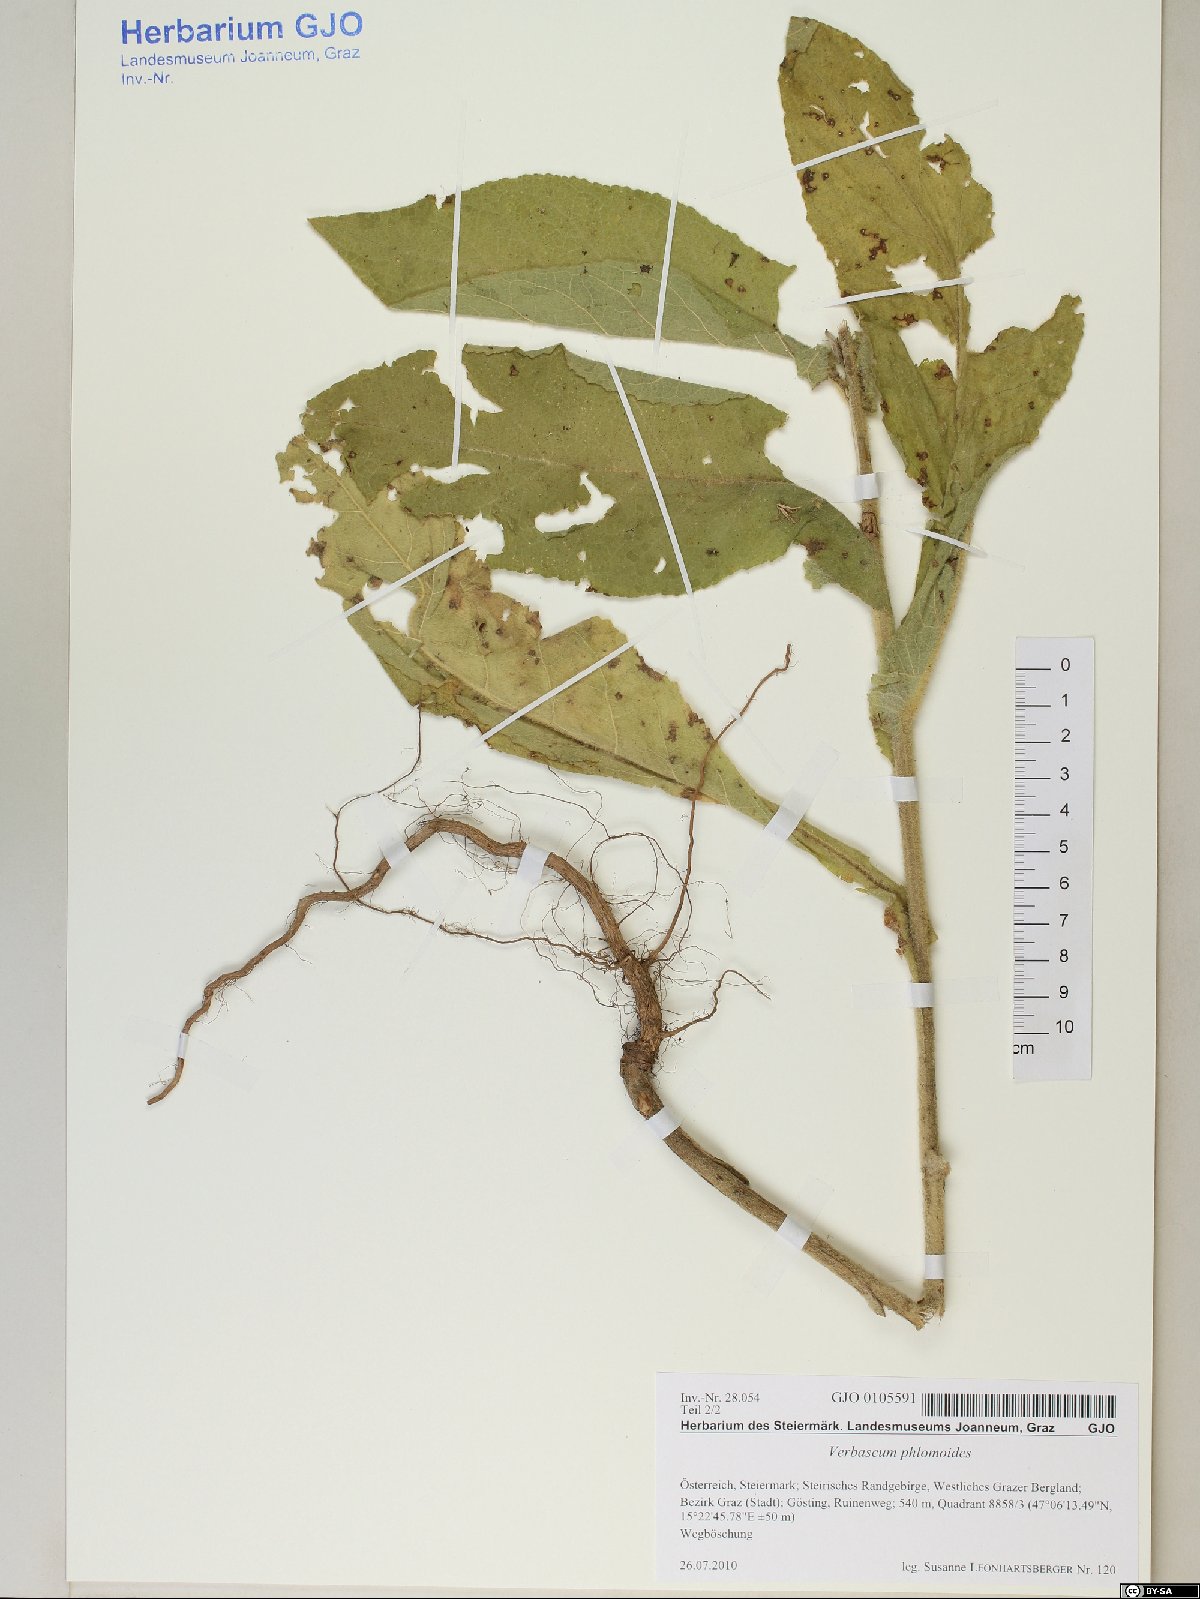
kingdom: Plantae
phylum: Tracheophyta
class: Magnoliopsida
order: Lamiales
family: Scrophulariaceae
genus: Verbascum
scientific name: Verbascum phlomoides
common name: Orange mullein
